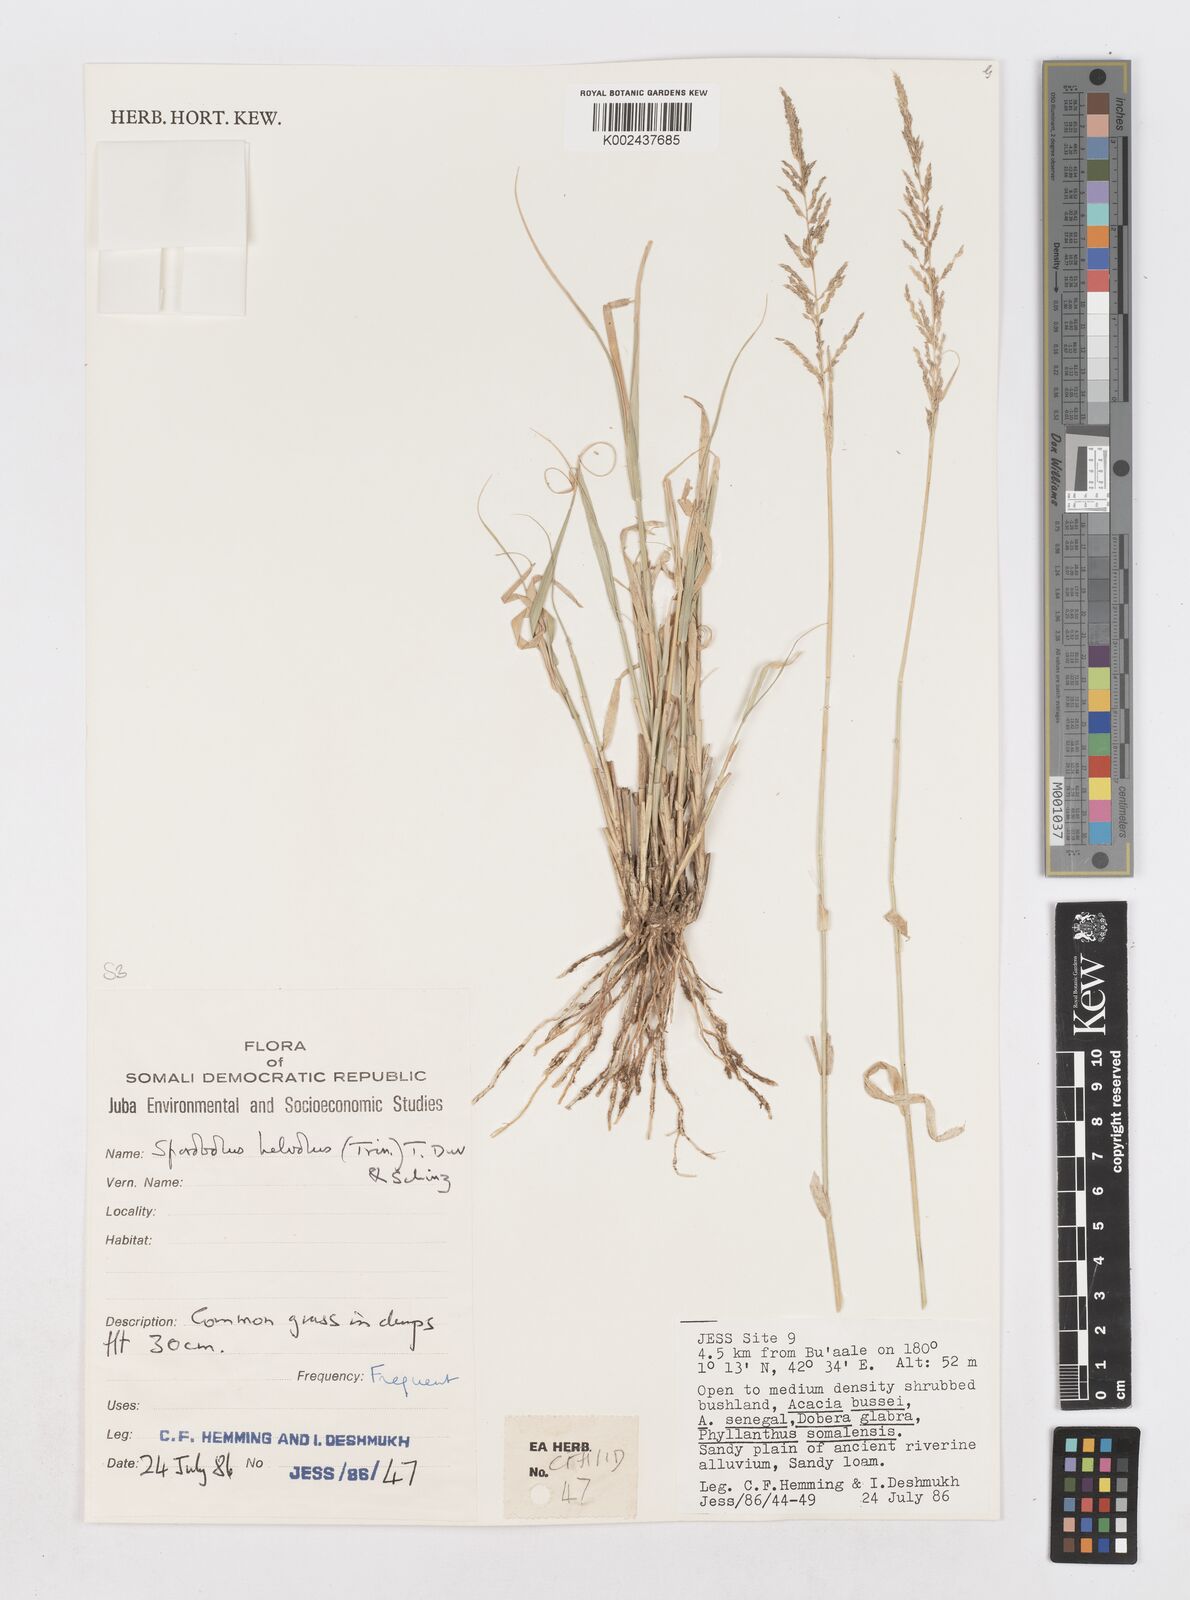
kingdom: Plantae
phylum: Tracheophyta
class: Liliopsida
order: Poales
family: Poaceae
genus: Sporobolus
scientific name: Sporobolus helvolus
